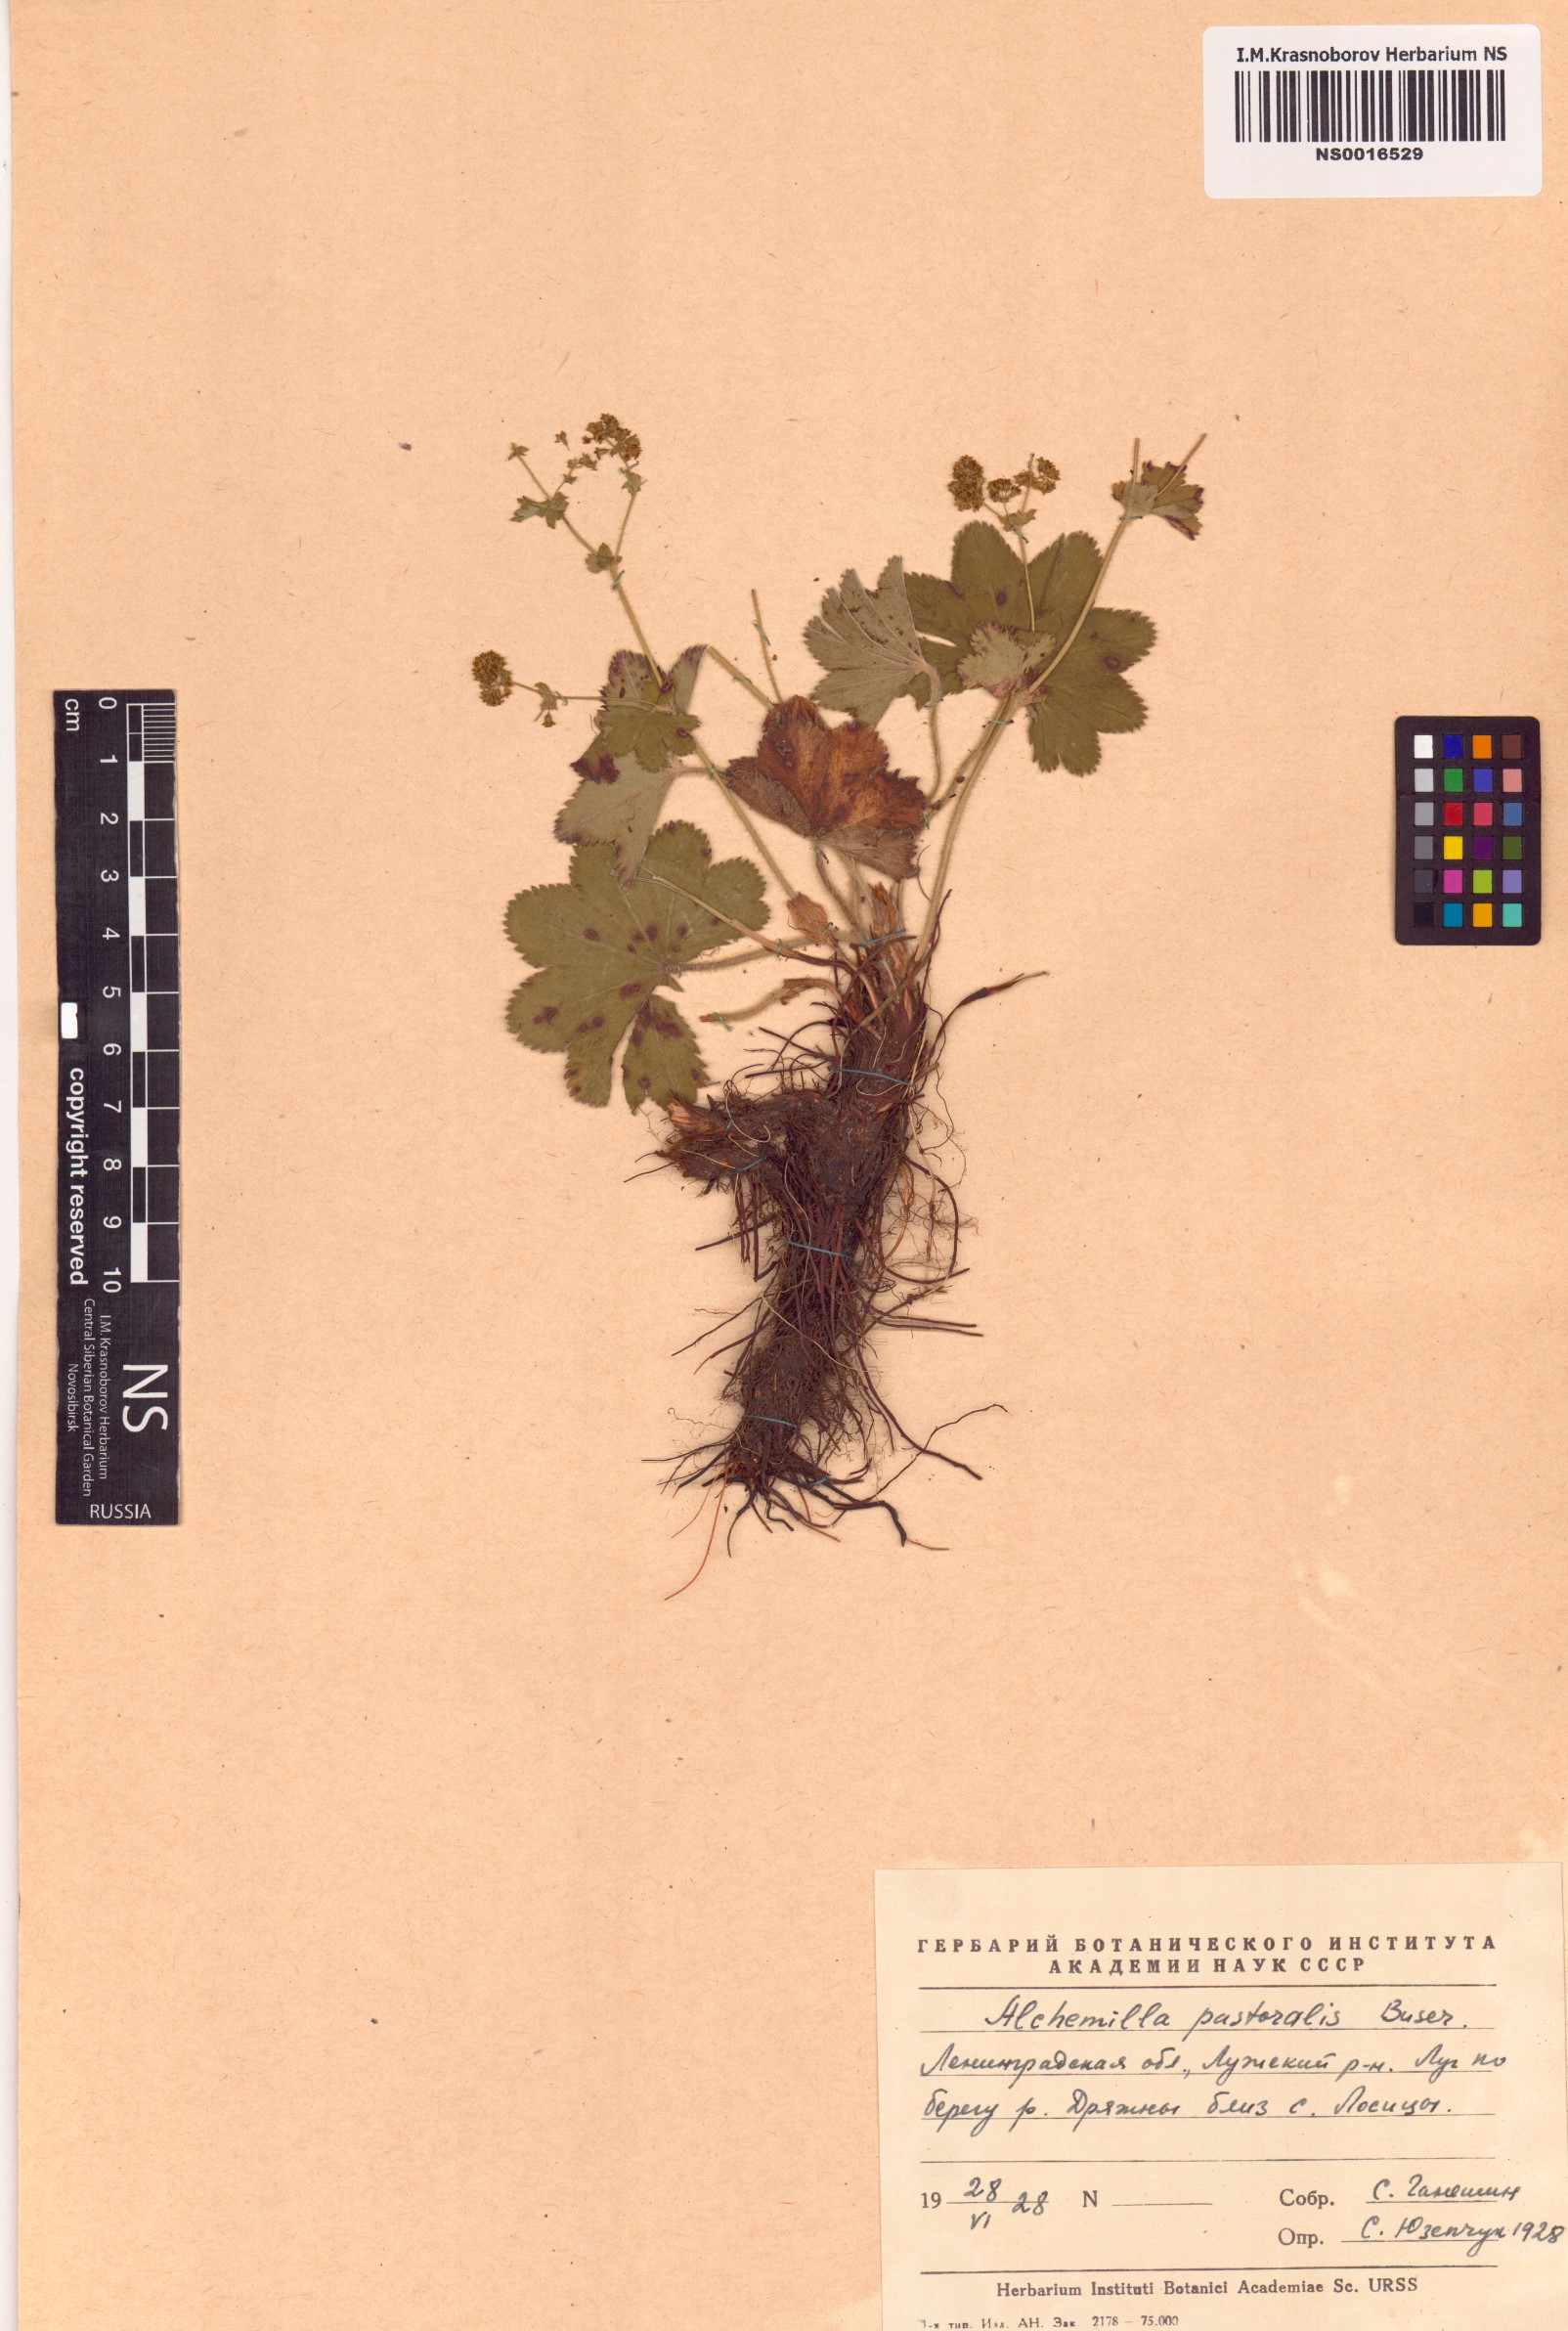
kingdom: Plantae
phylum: Tracheophyta
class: Magnoliopsida
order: Rosales
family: Rosaceae
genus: Alchemilla
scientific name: Alchemilla monticola
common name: Hairy lady's mantle
